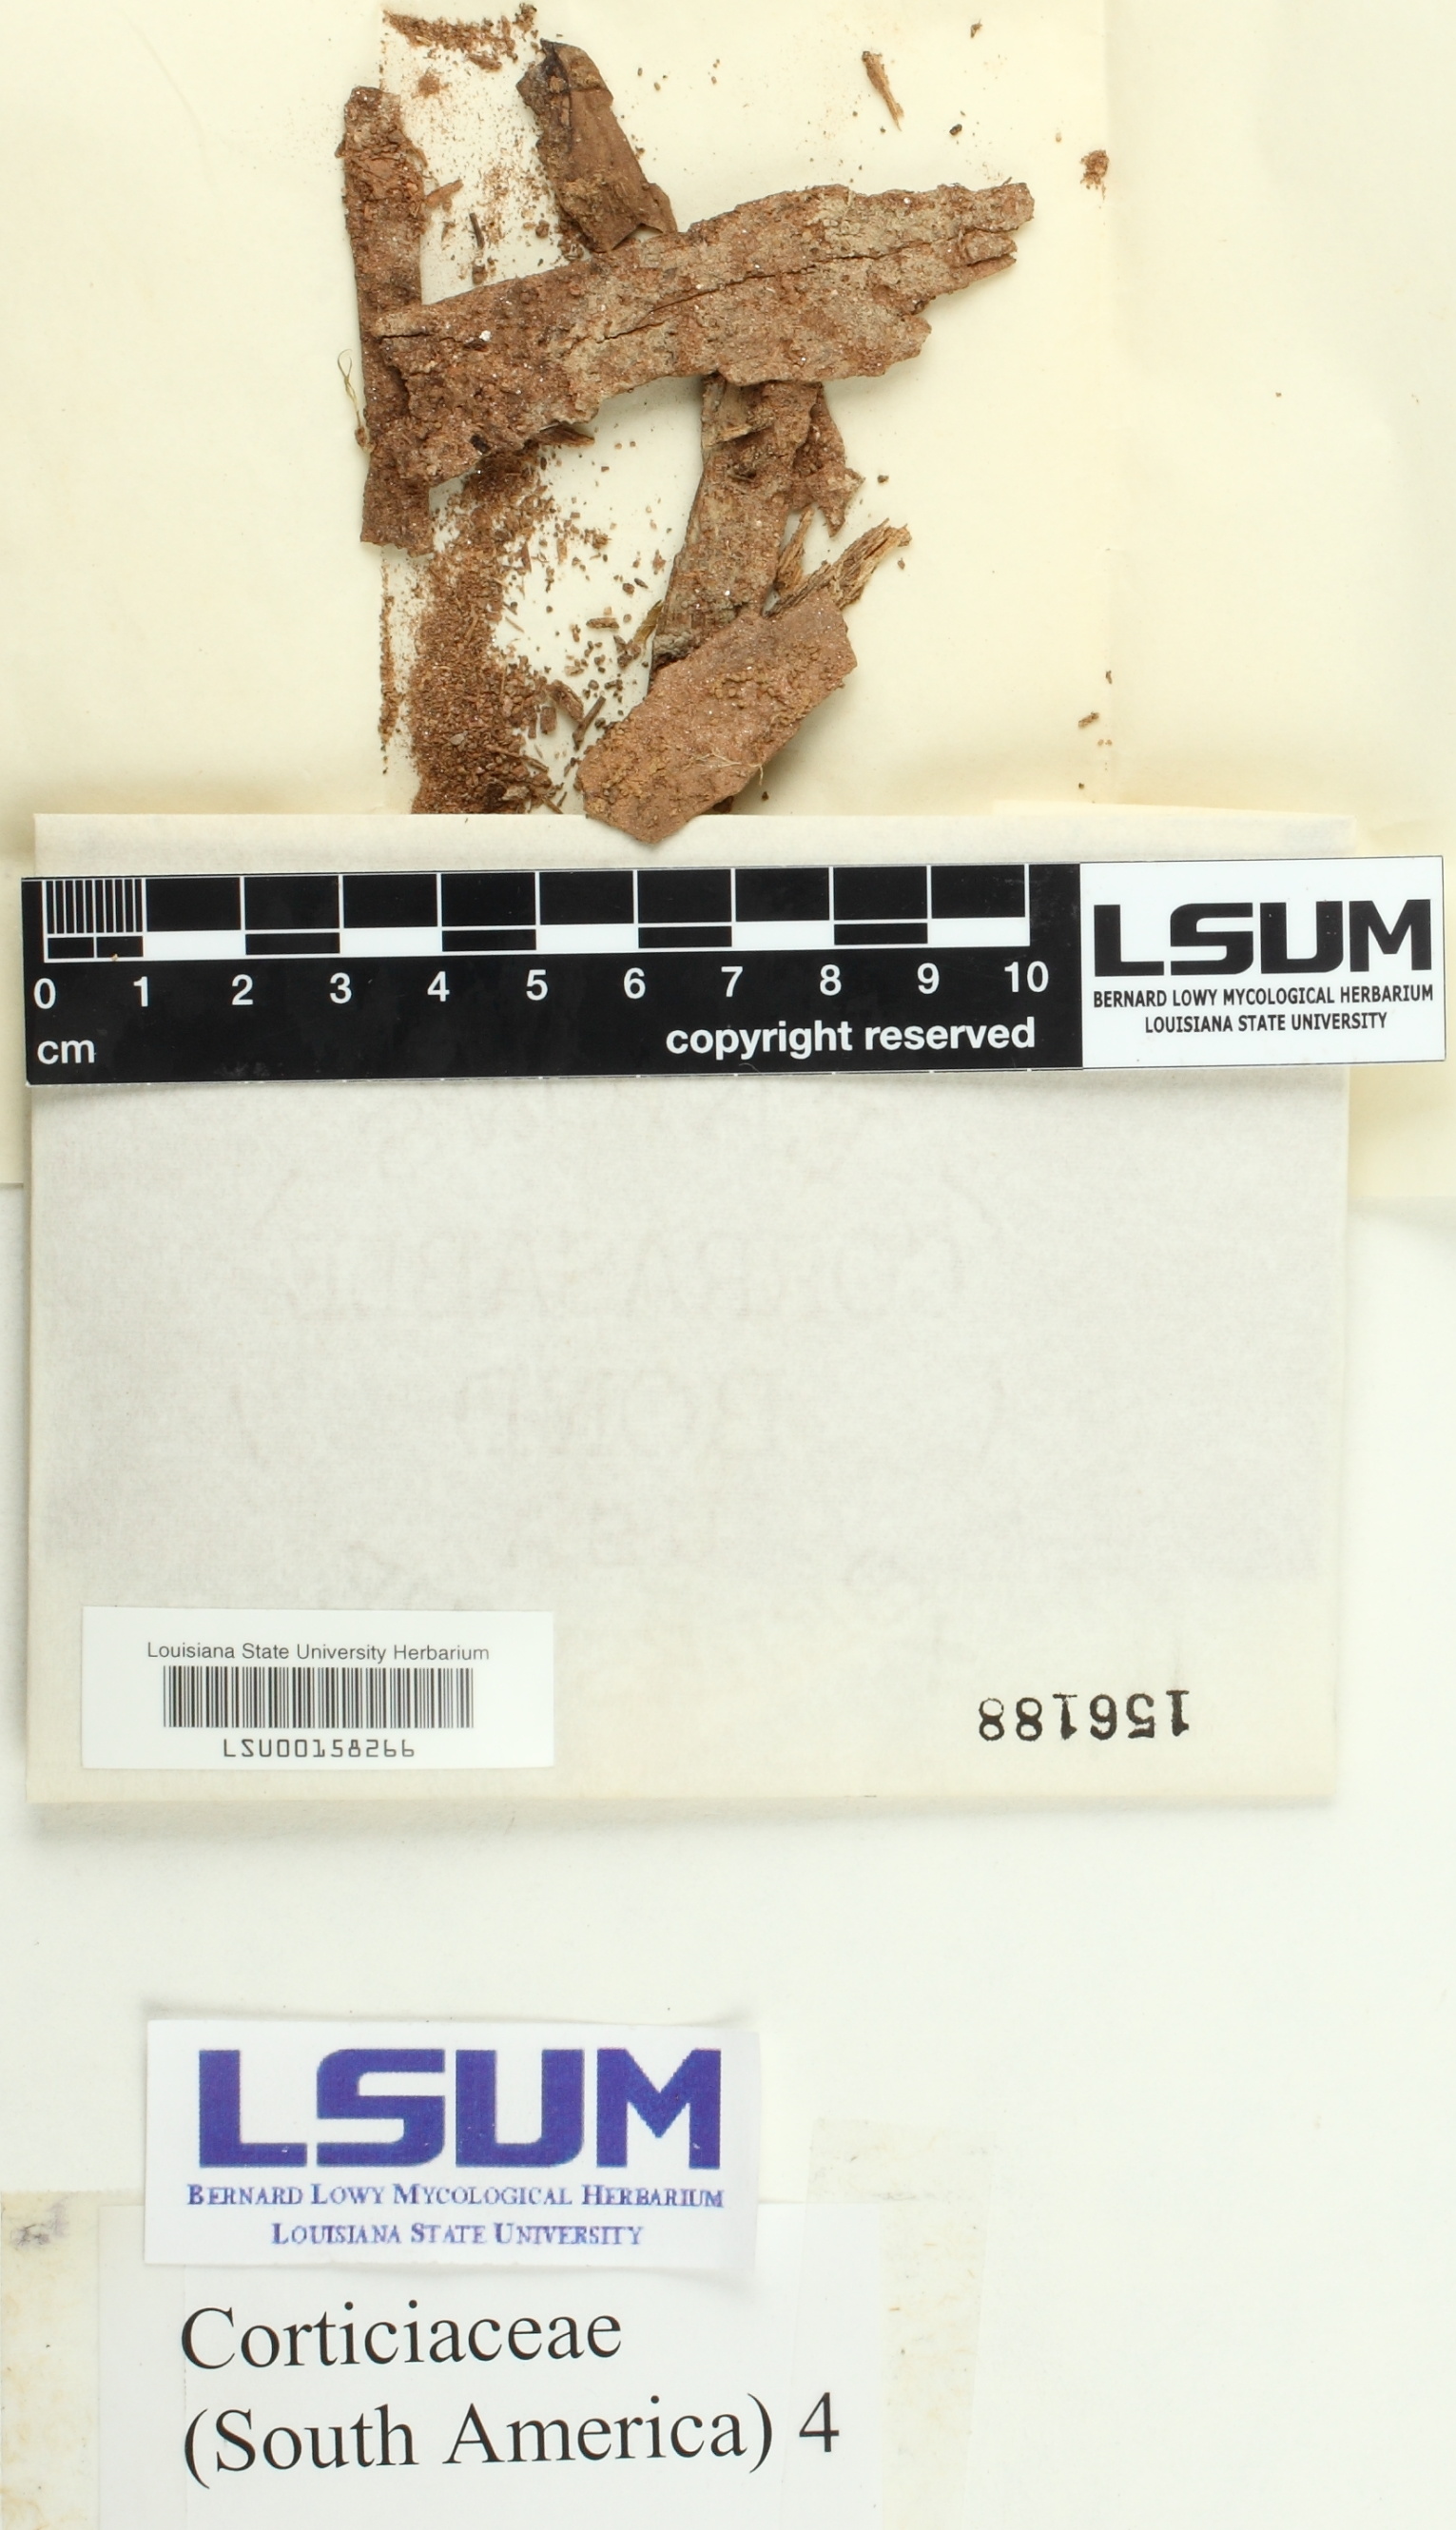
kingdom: Fungi
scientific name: Fungi
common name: Fungi
